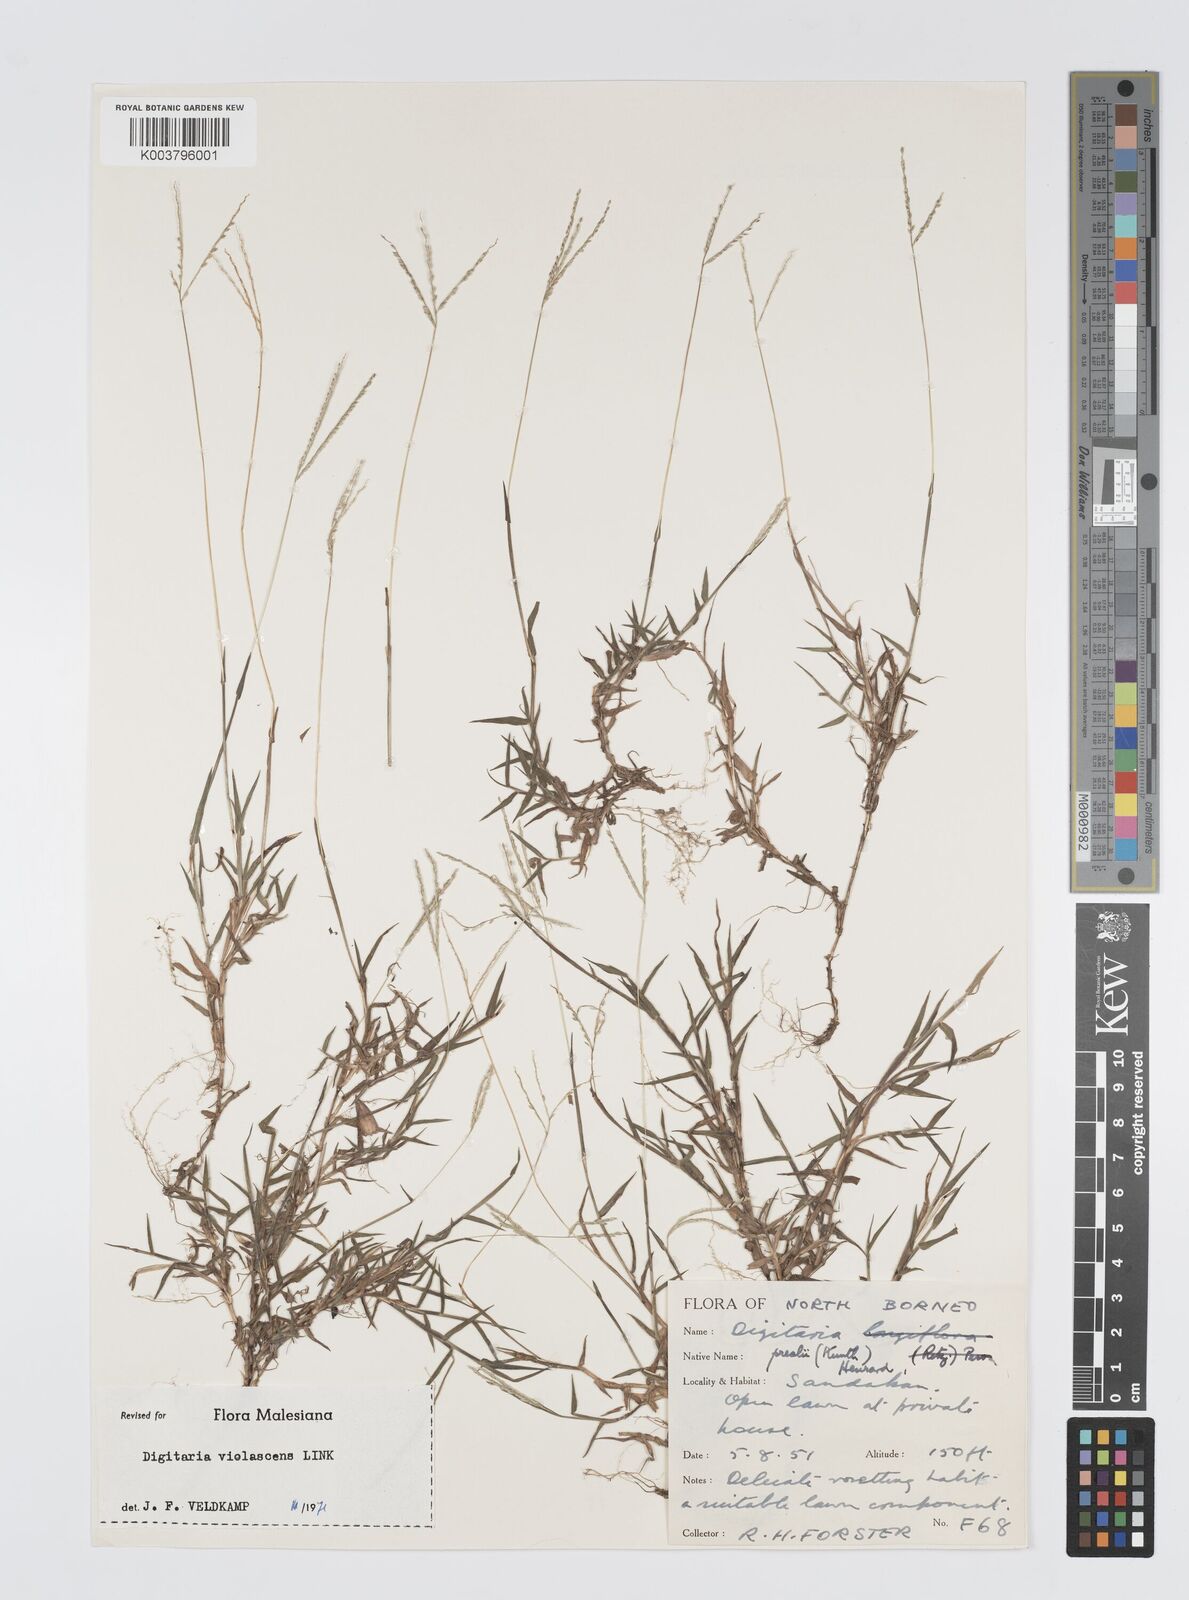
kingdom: Plantae
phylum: Tracheophyta
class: Liliopsida
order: Poales
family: Poaceae
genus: Digitaria
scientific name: Digitaria violascens
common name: Violet crabgrass
